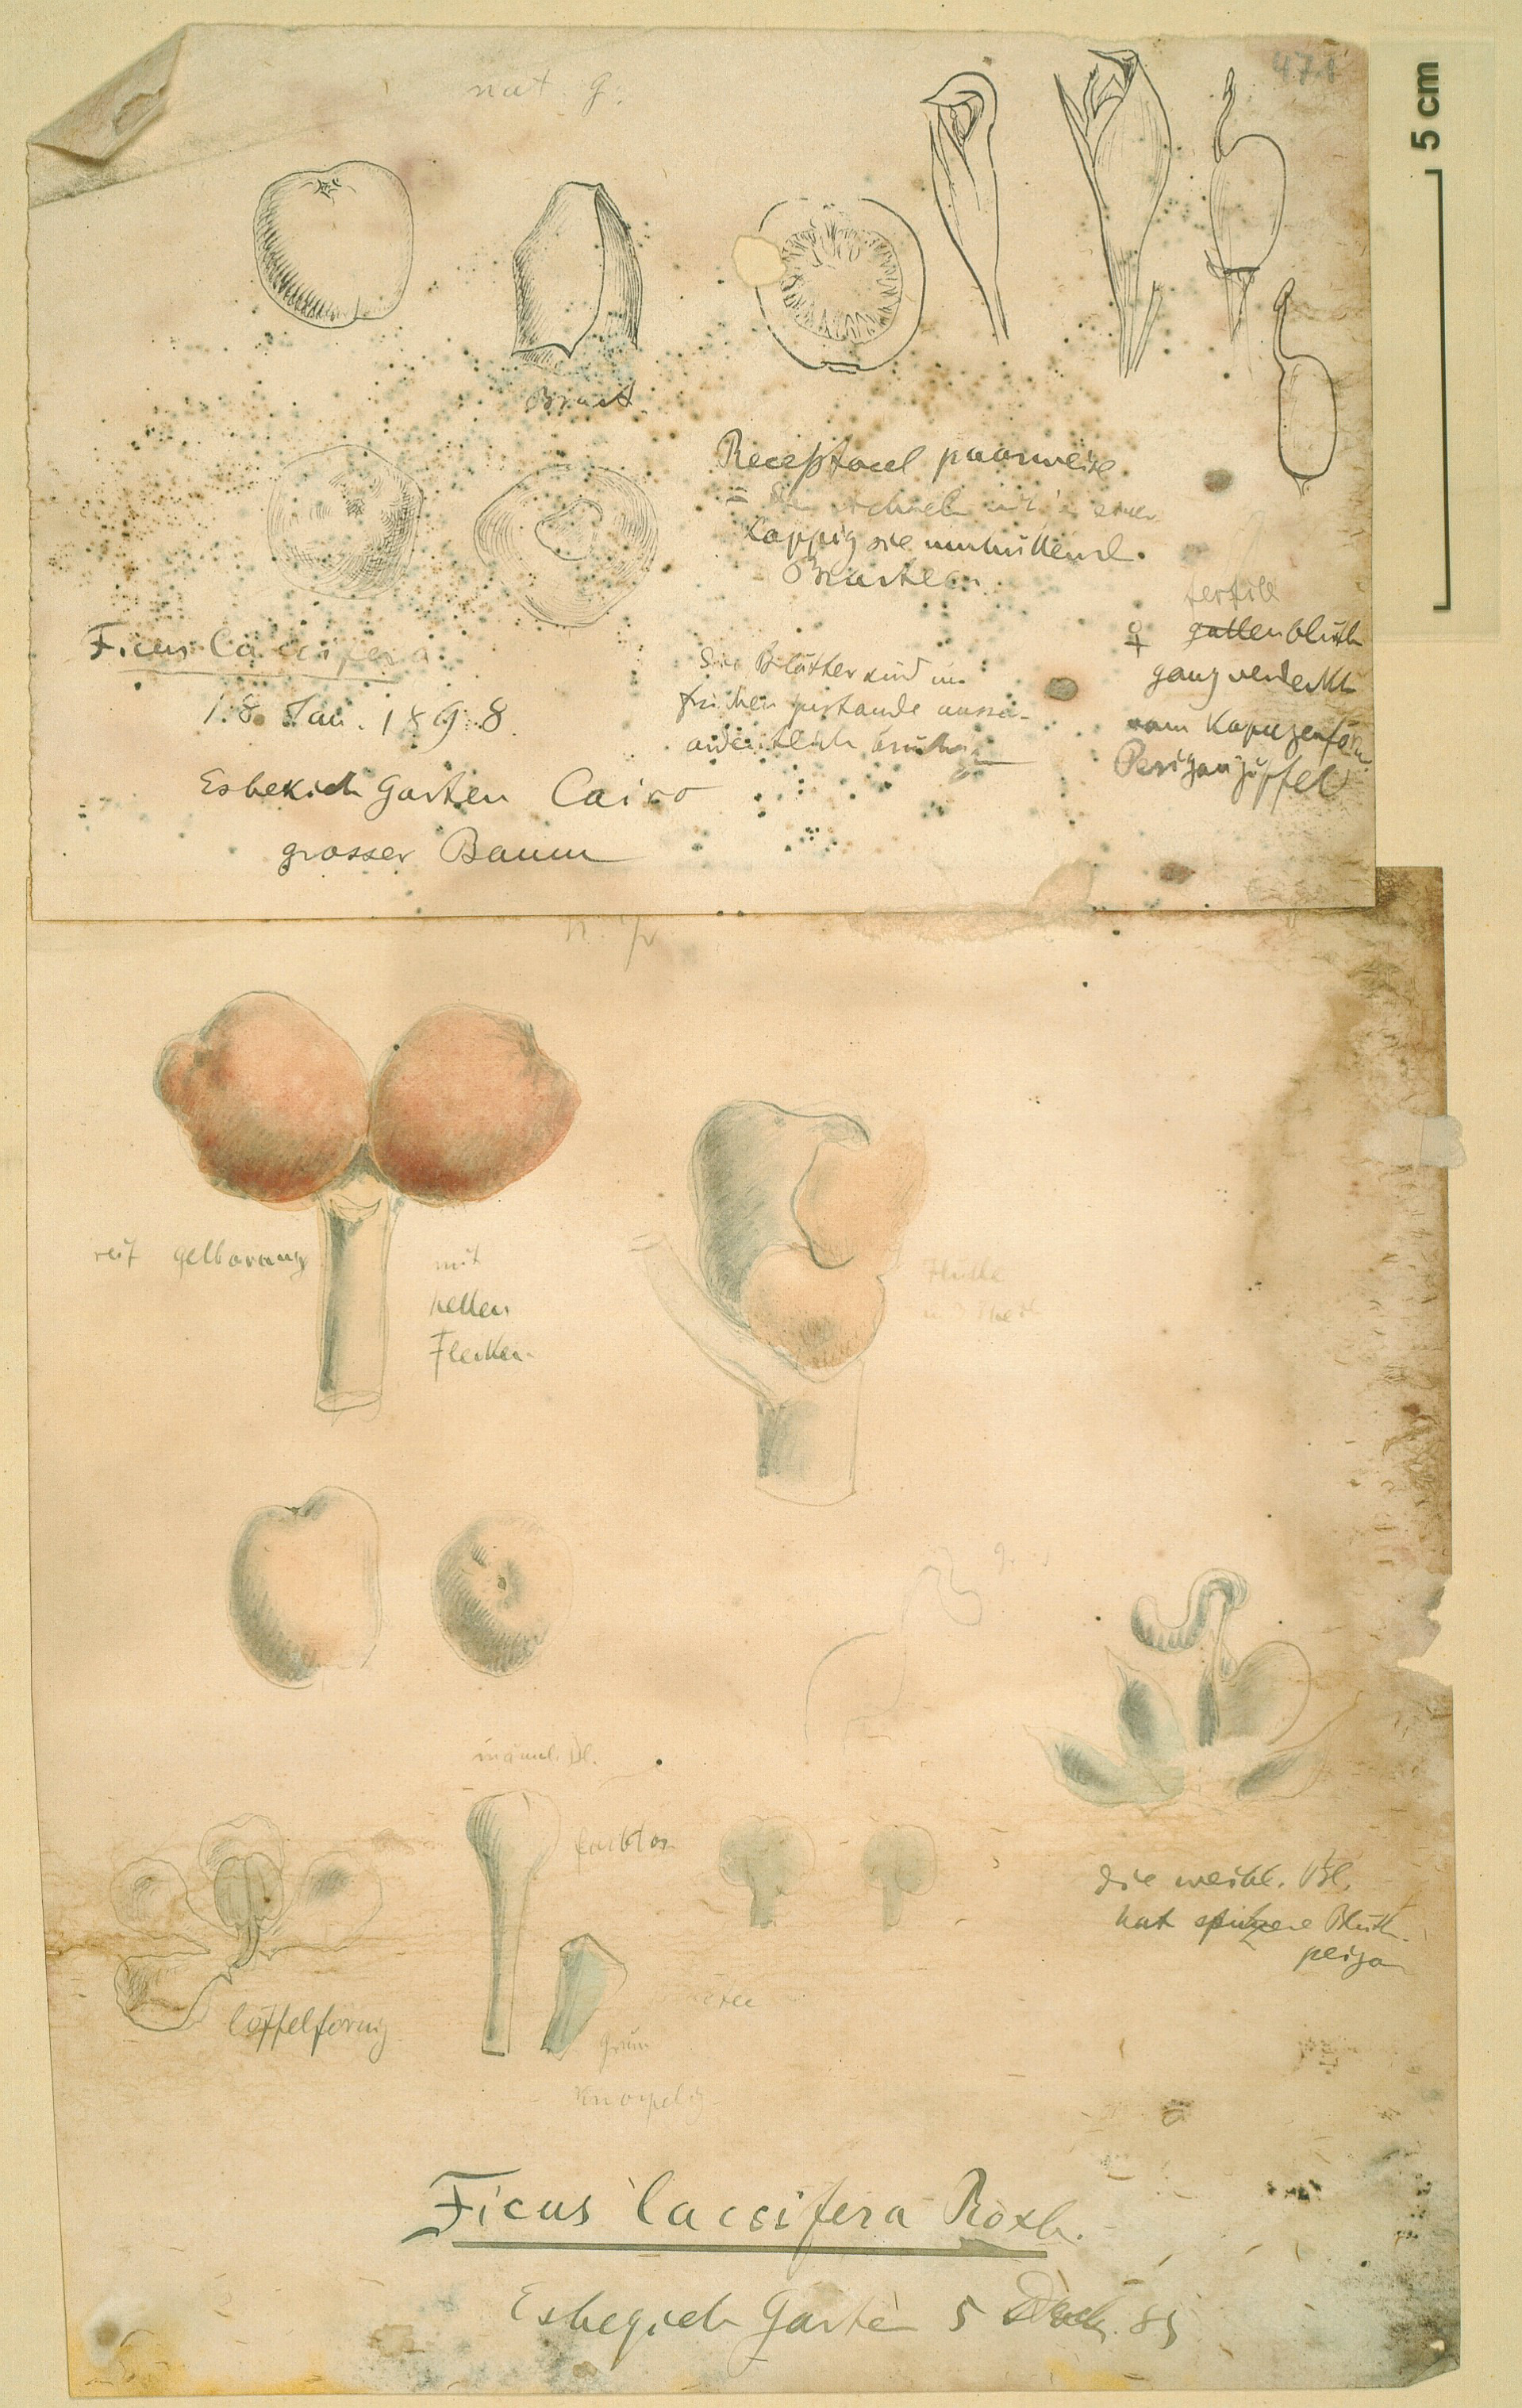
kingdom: Plantae
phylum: Tracheophyta
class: Magnoliopsida
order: Rosales
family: Moraceae
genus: Ficus
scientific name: Ficus altissima
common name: Council tree
